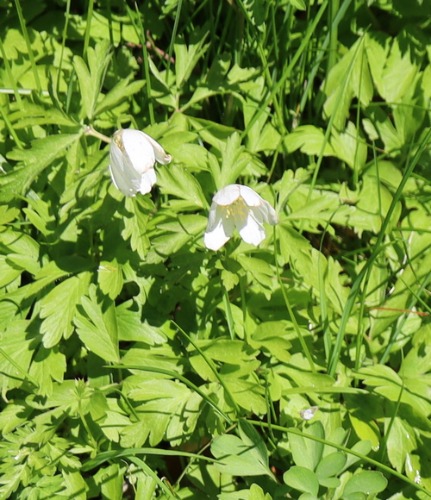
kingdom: Plantae
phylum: Tracheophyta
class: Magnoliopsida
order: Ranunculales
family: Ranunculaceae
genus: Anemone
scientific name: Anemone nemorosa
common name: Hvid anemone
